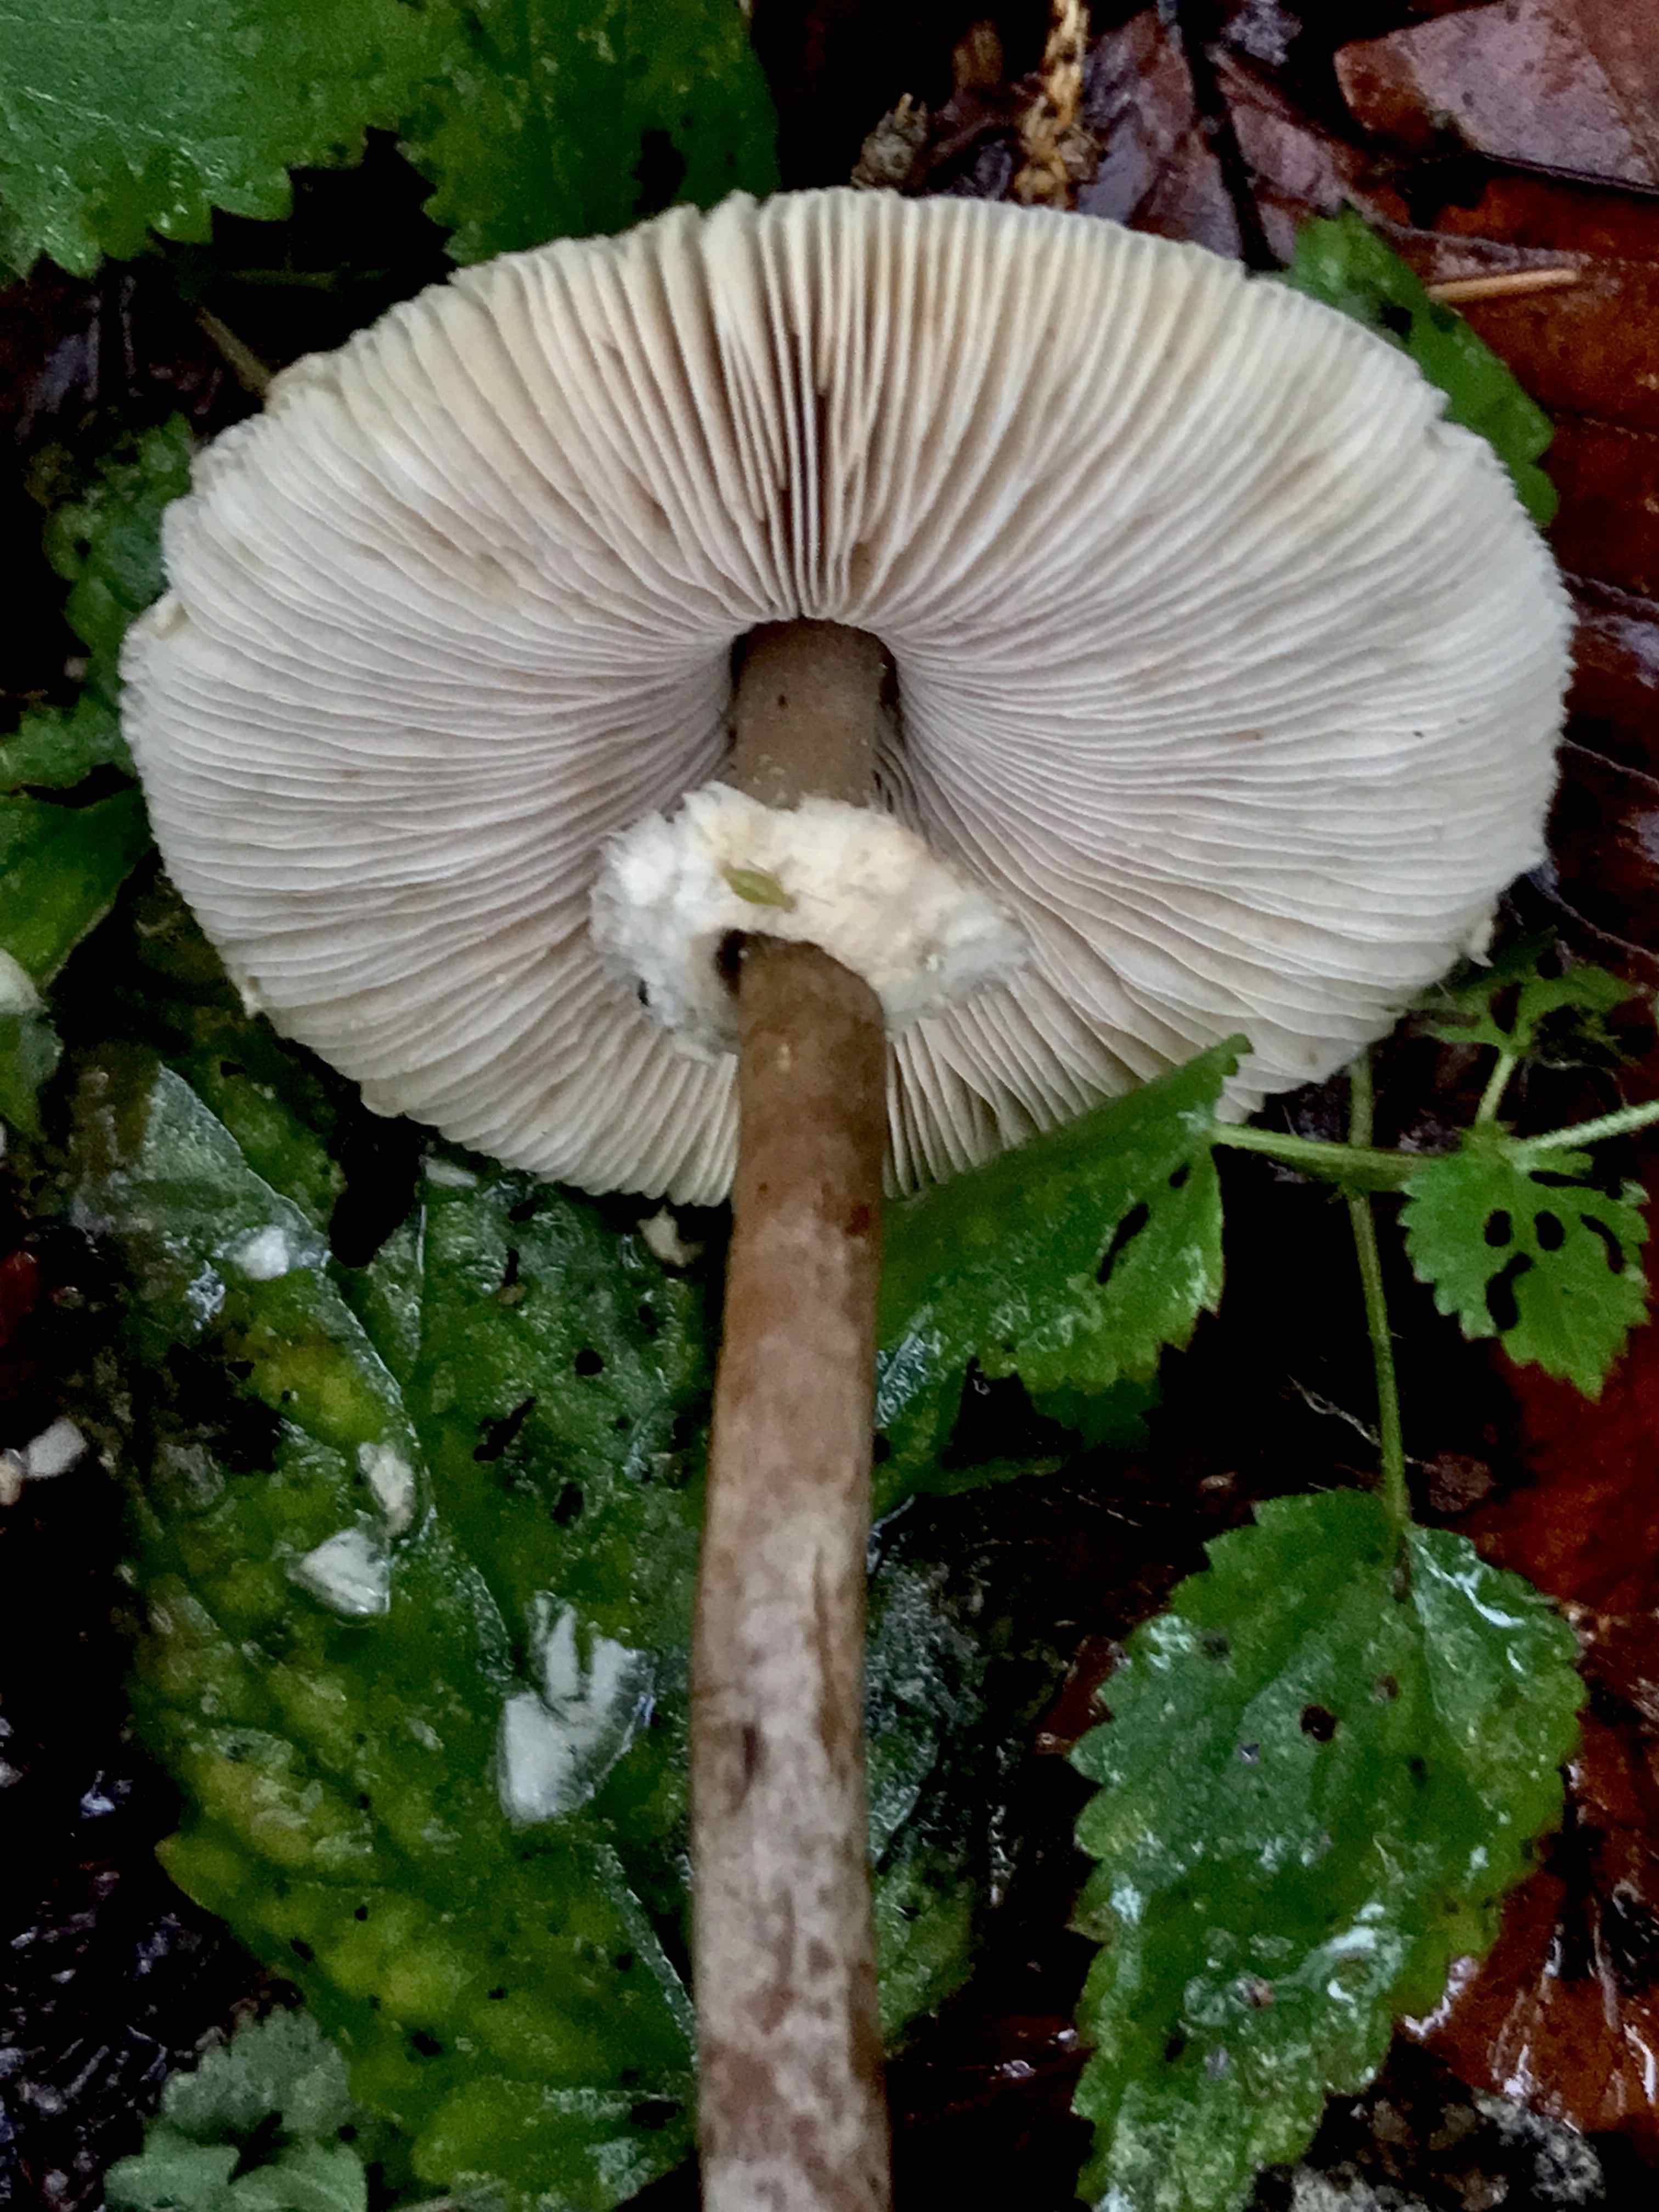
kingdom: Fungi
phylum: Basidiomycota
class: Agaricomycetes
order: Agaricales
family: Agaricaceae
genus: Leucoagaricus
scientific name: Leucoagaricus nympharum
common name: gran-silkehat
